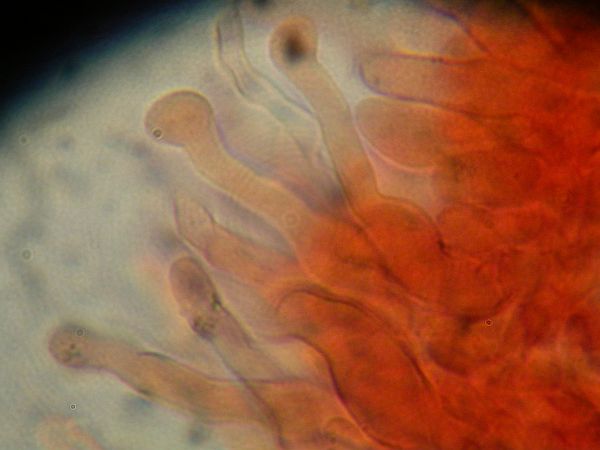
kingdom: Fungi
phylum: Basidiomycota
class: Agaricomycetes
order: Agaricales
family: Bolbitiaceae
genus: Panaeolus
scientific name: Panaeolus acuminatus
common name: høj glanshat
